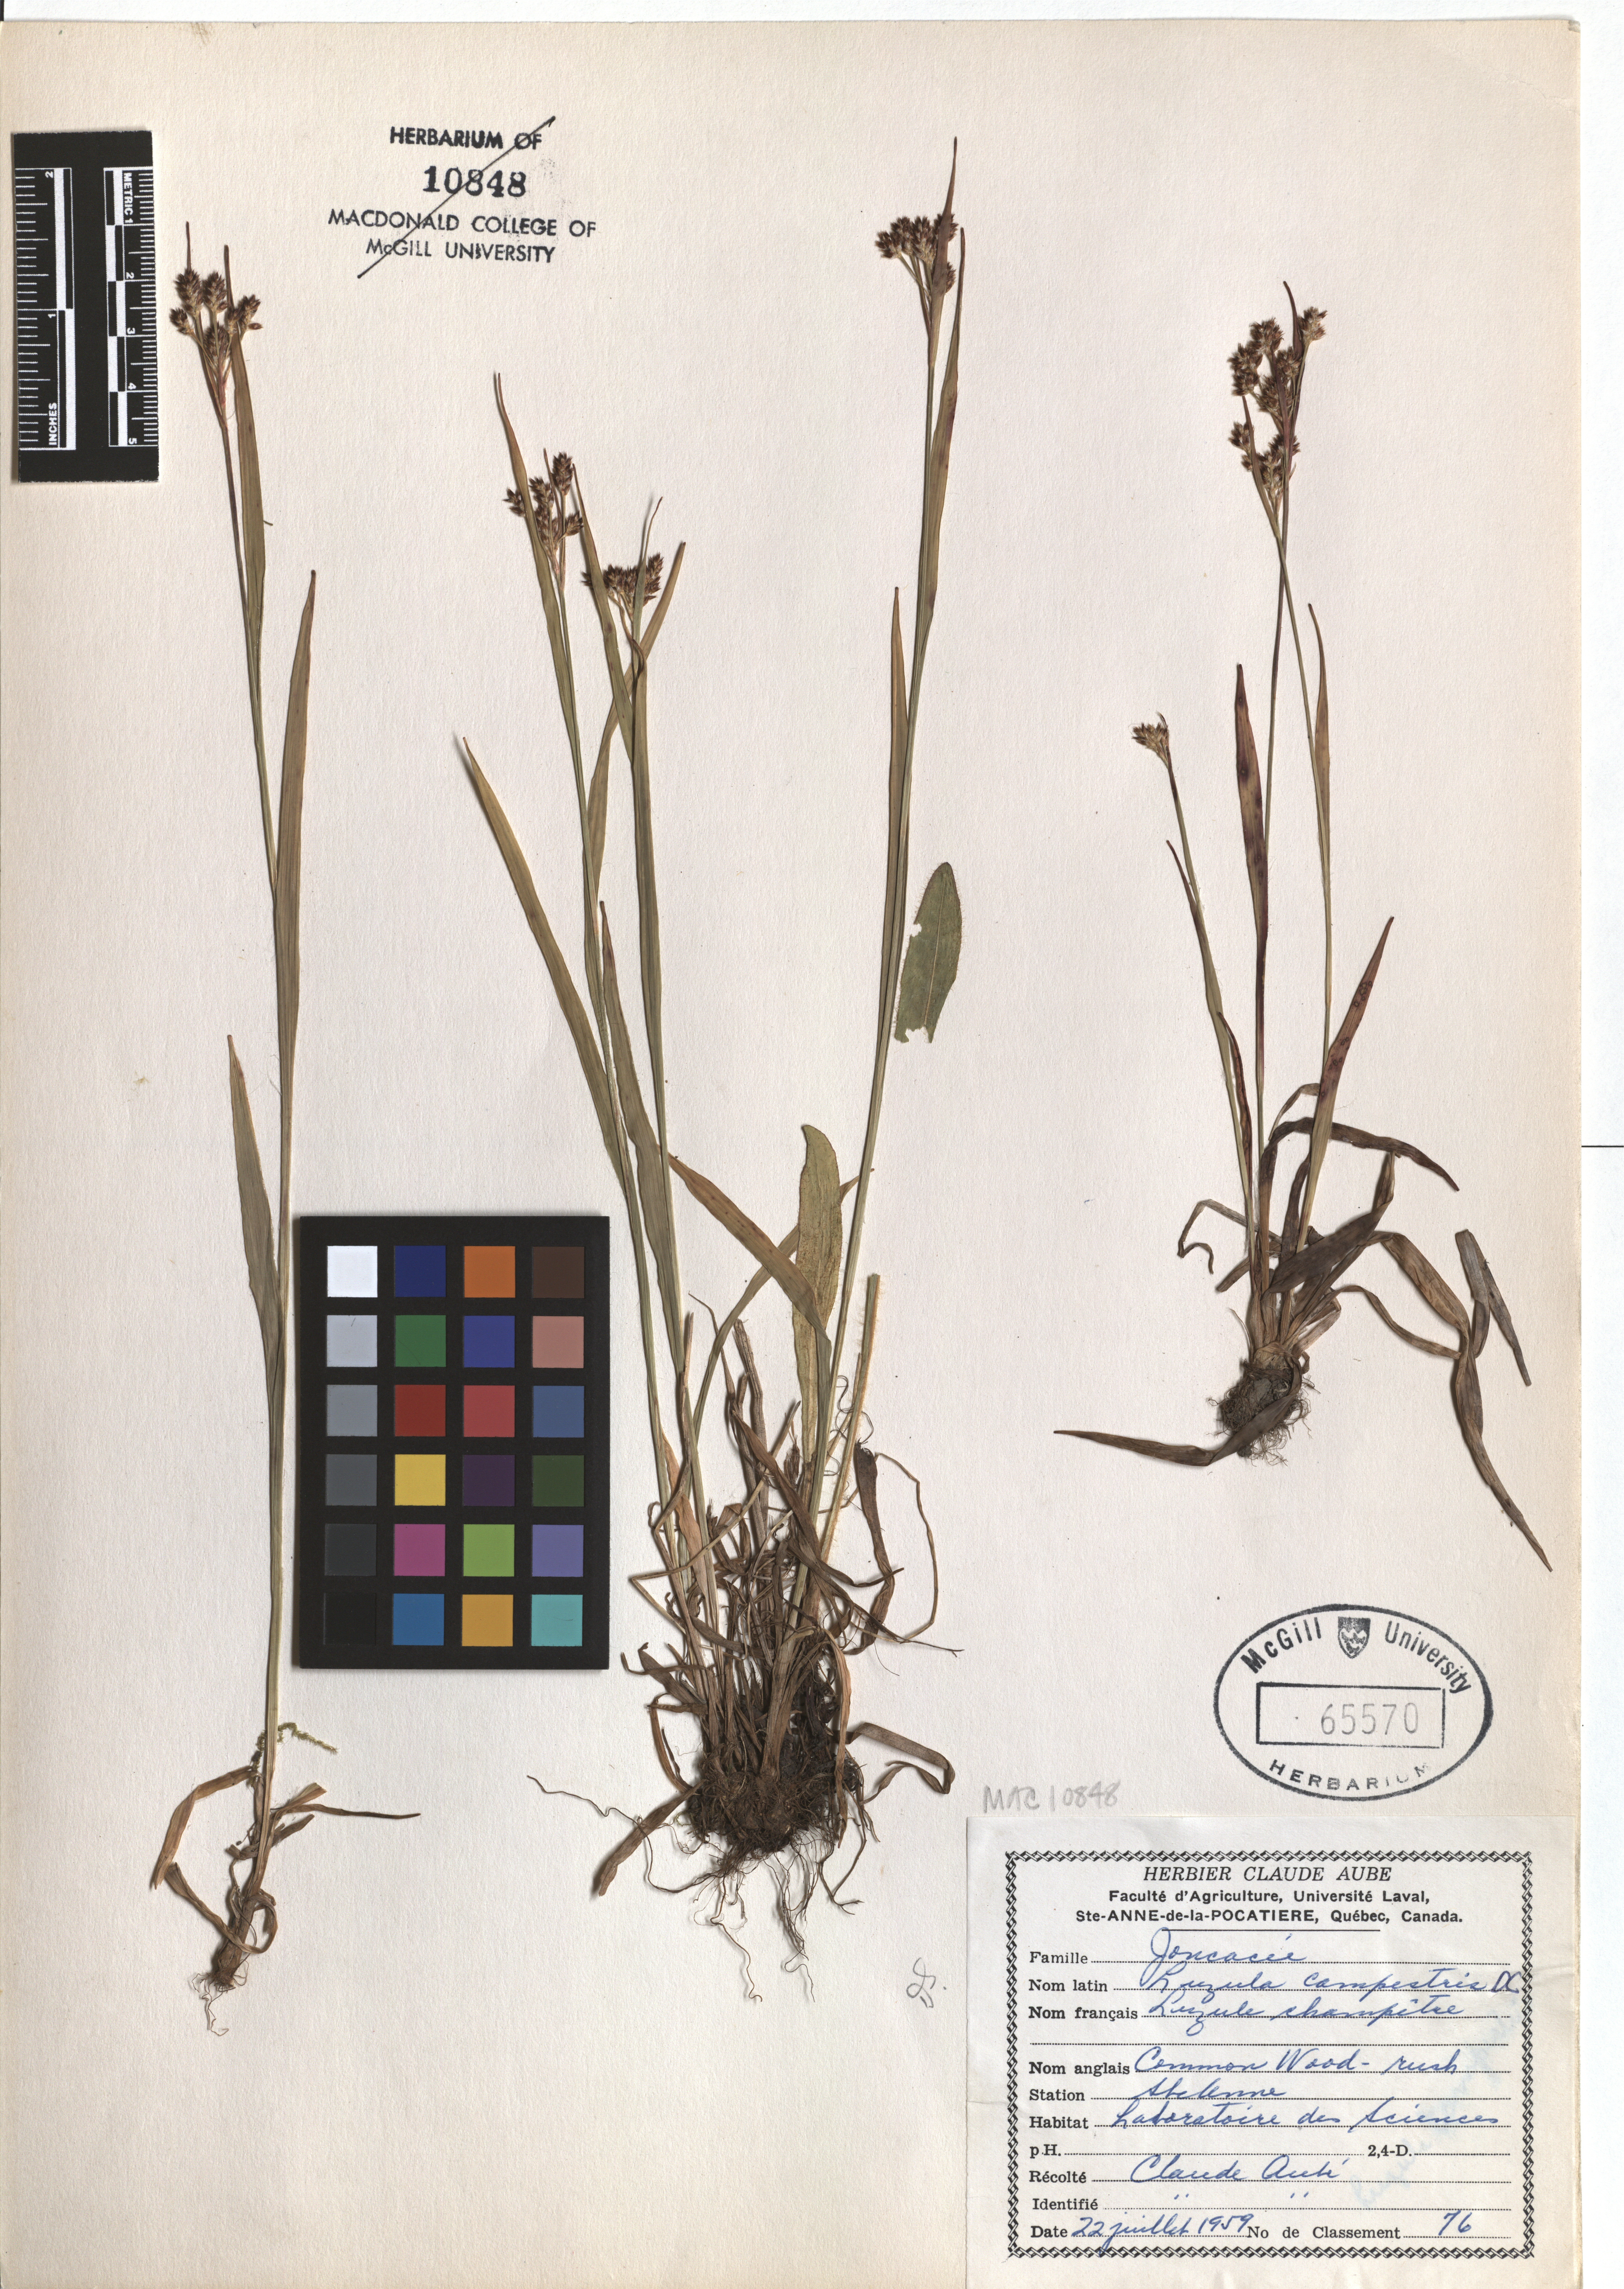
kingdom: Plantae
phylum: Tracheophyta
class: Liliopsida
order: Poales
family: Juncaceae
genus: Luzula
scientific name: Luzula campestris
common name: Field wood-rush
